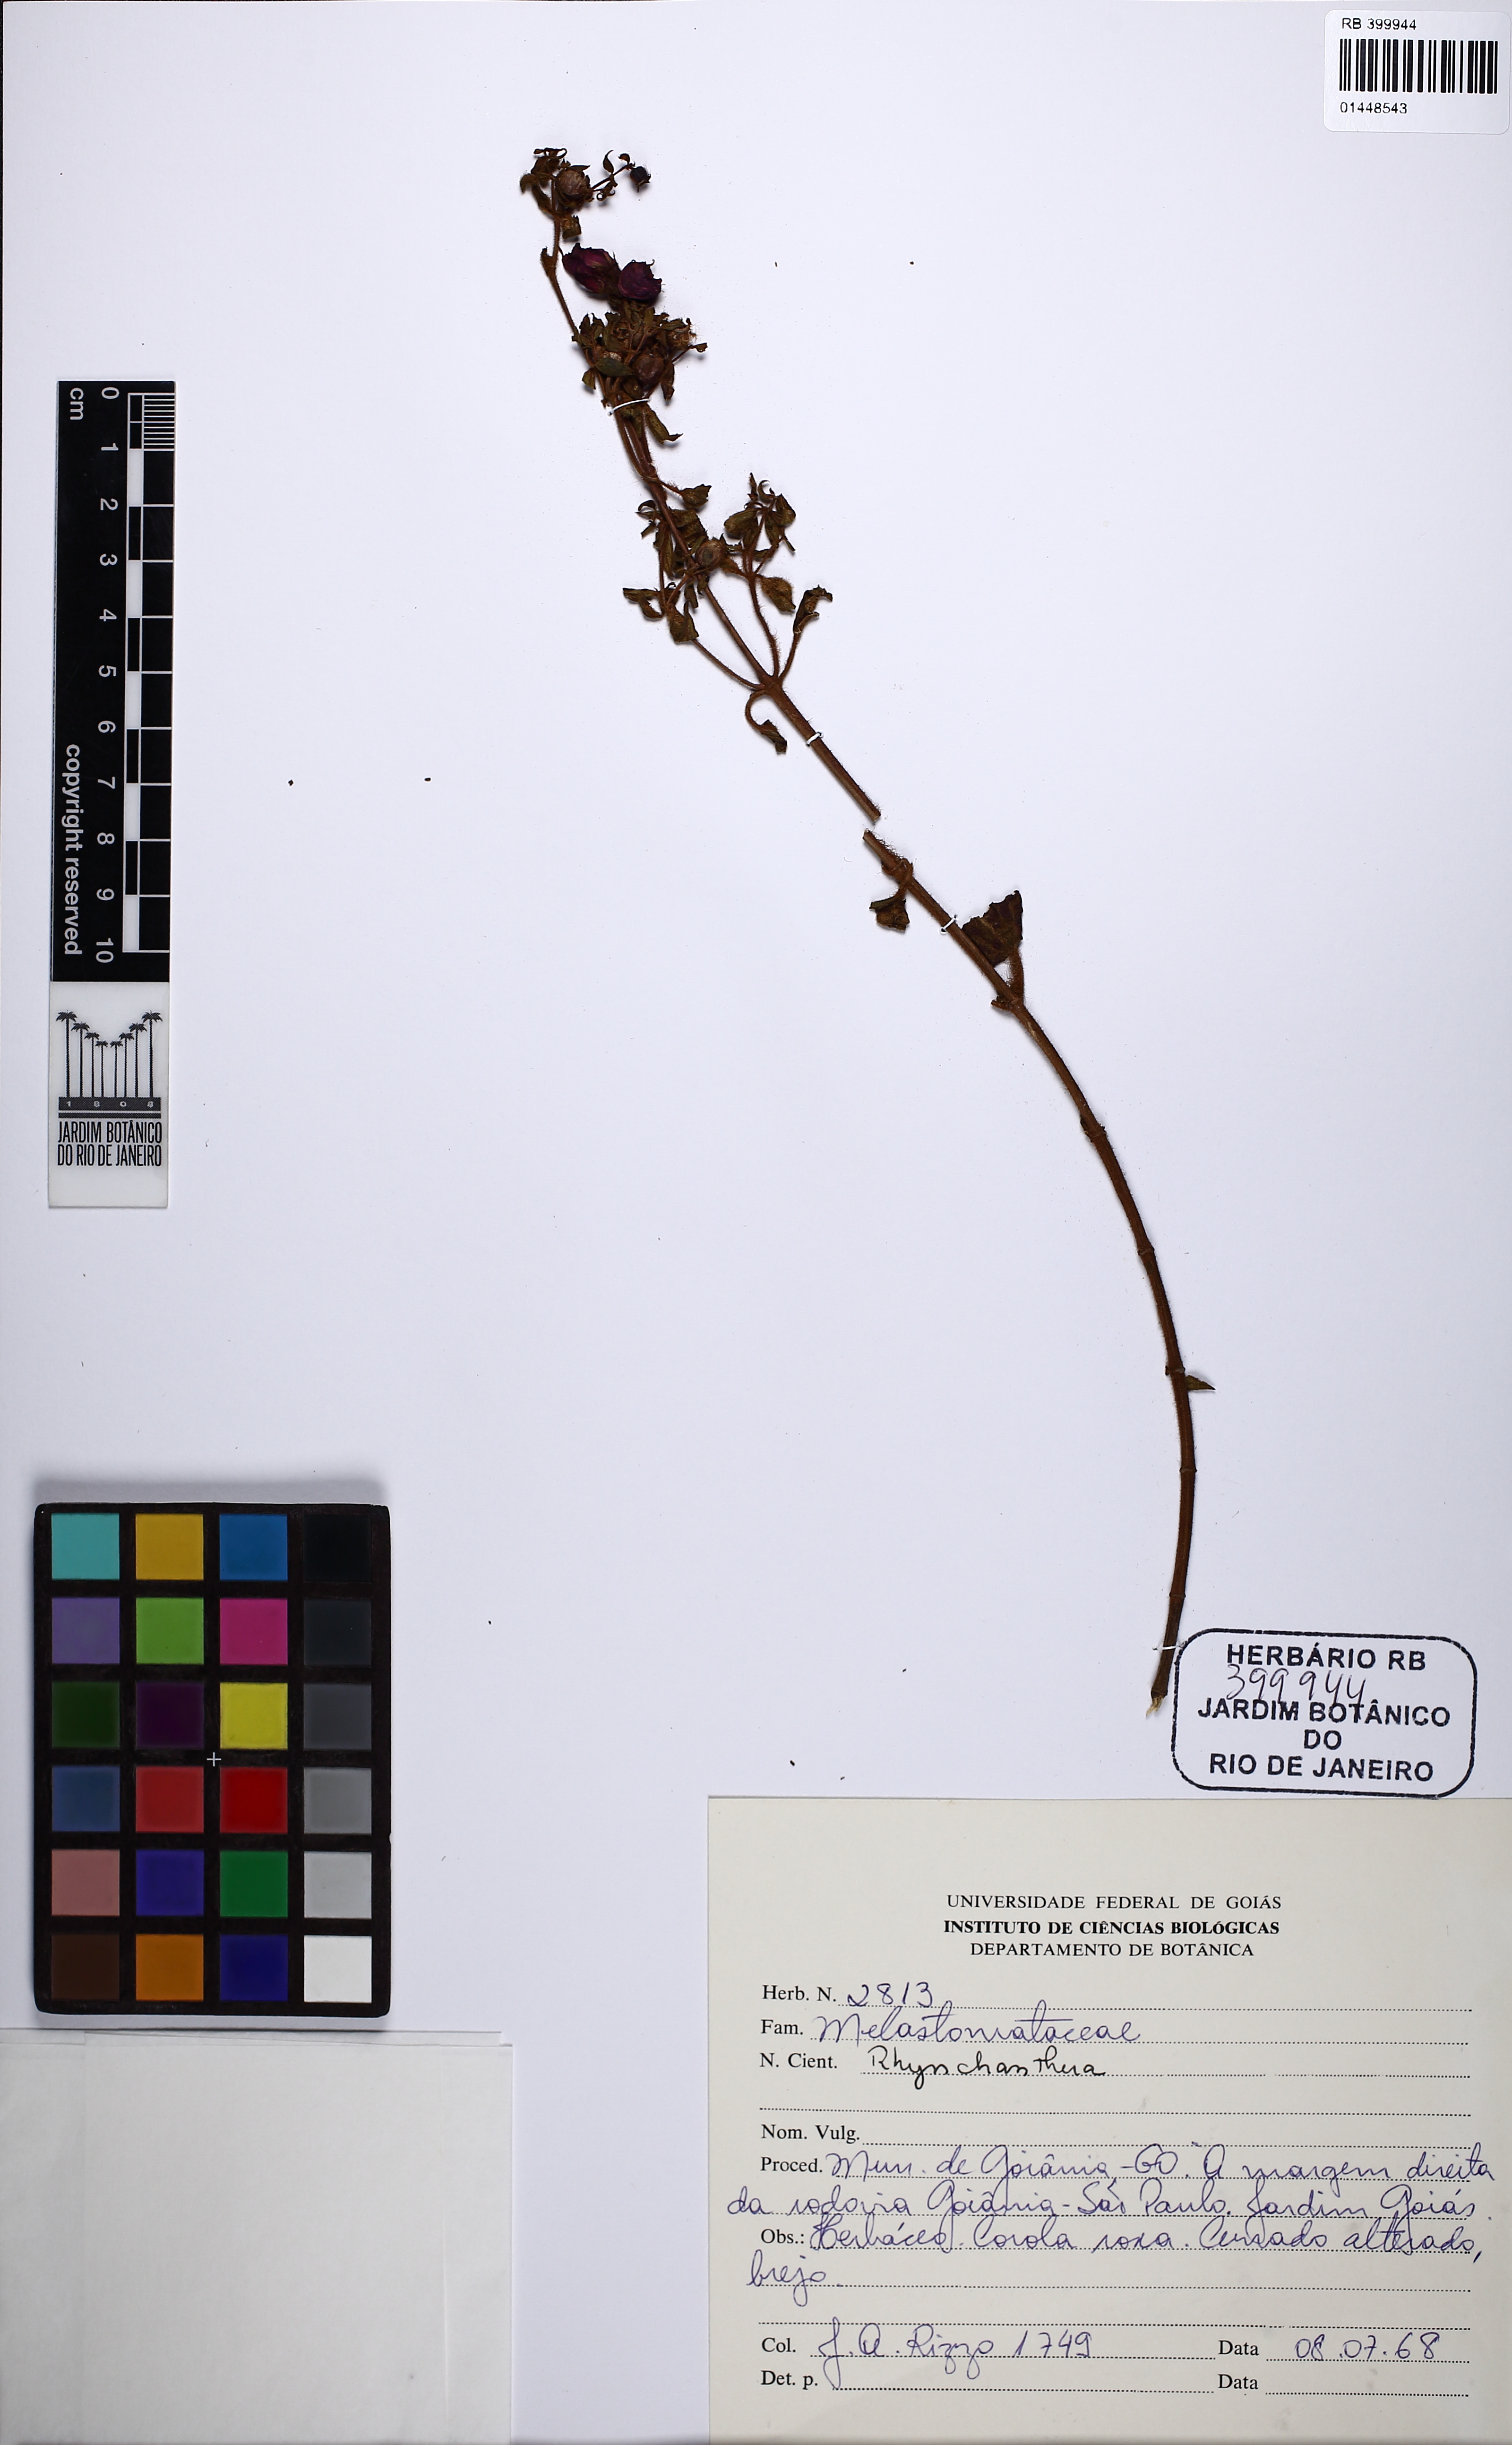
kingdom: Plantae
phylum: Tracheophyta
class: Magnoliopsida
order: Myrtales
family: Melastomataceae
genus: Rhynchanthera
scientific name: Rhynchanthera
